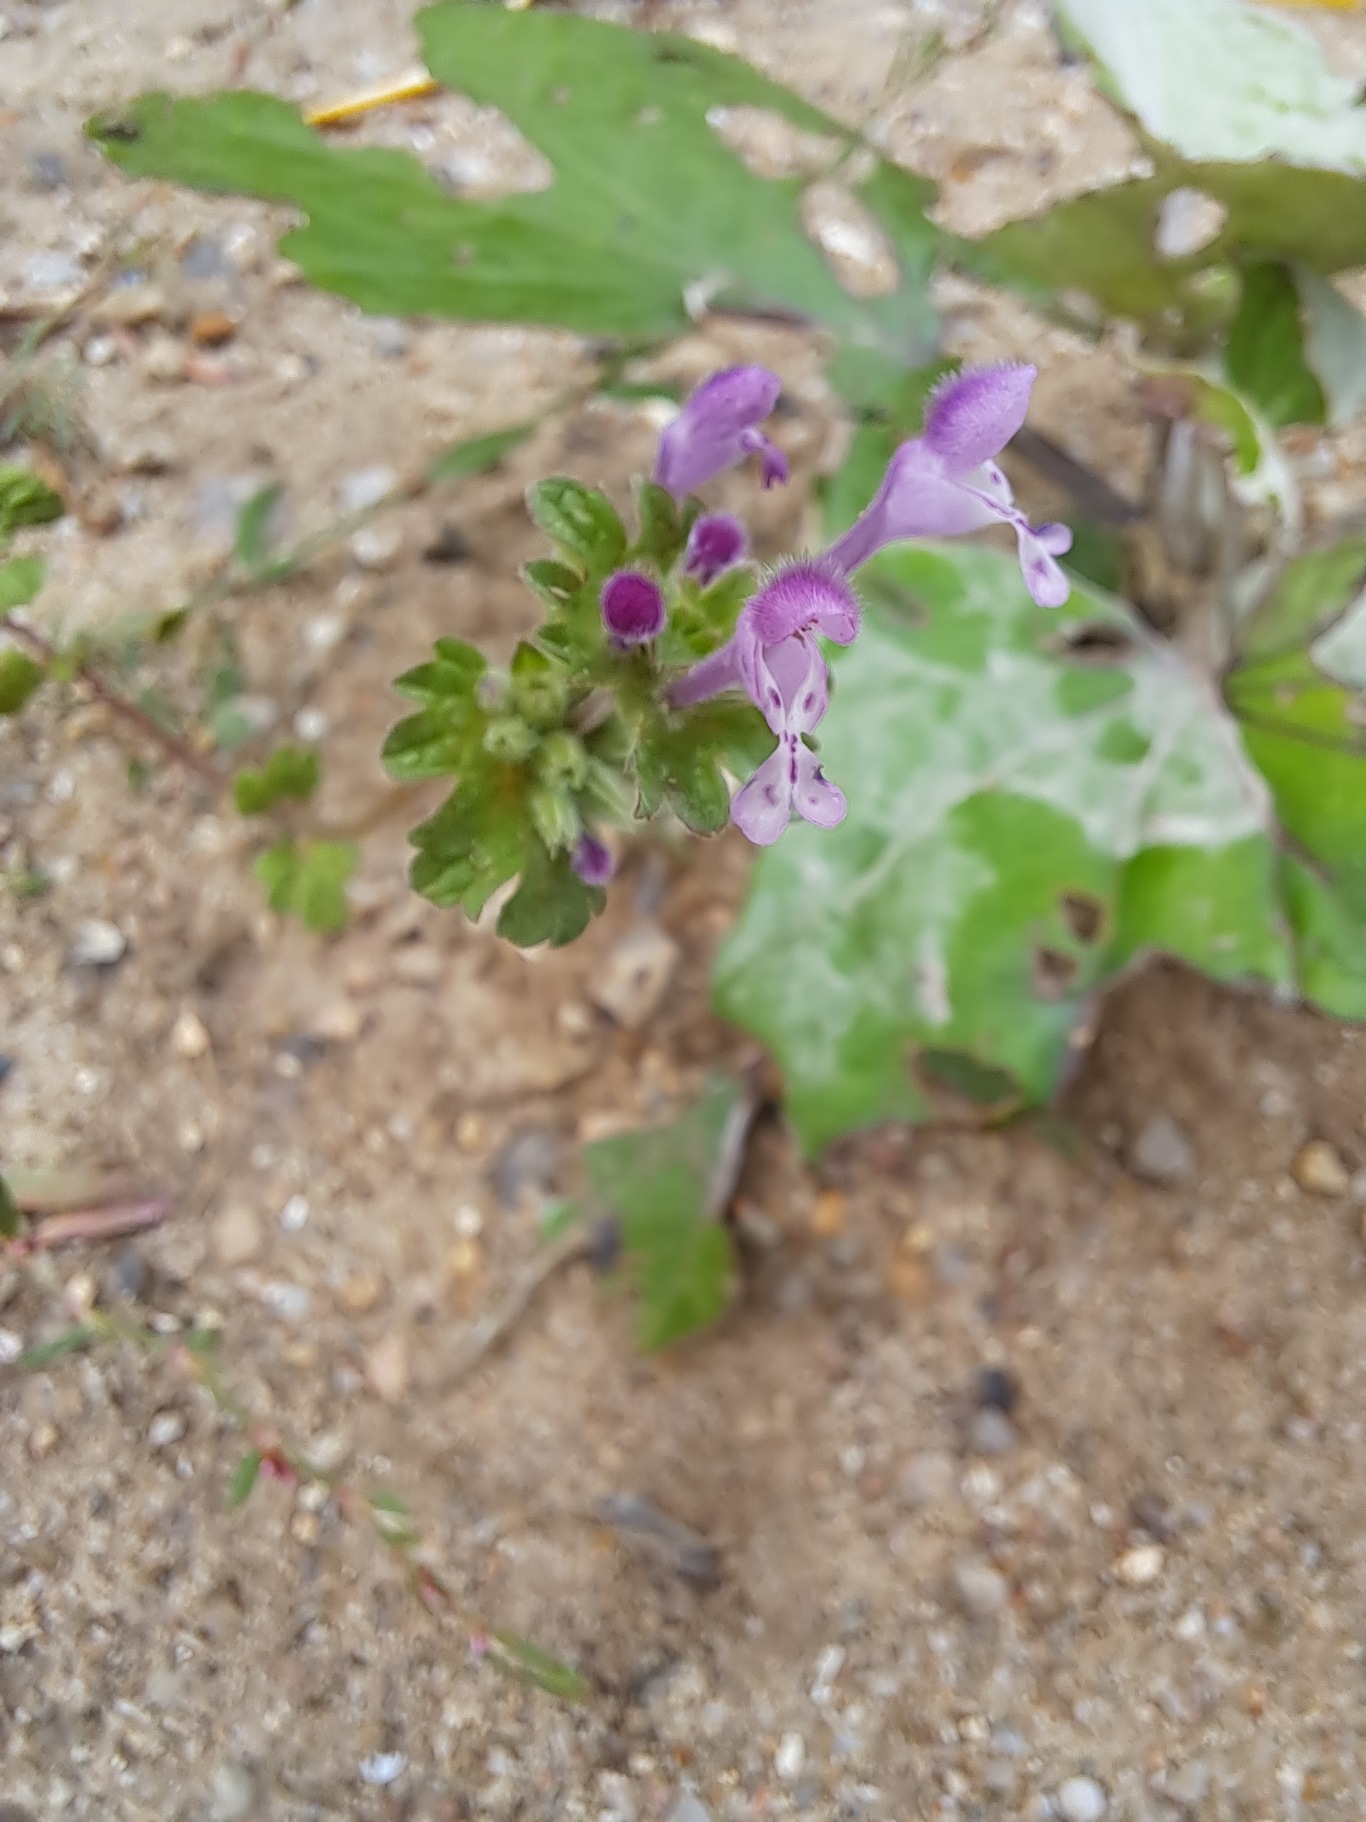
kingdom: Plantae
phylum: Tracheophyta
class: Magnoliopsida
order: Lamiales
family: Lamiaceae
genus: Lamium
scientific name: Lamium amplexicaule
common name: Liden tvetand
